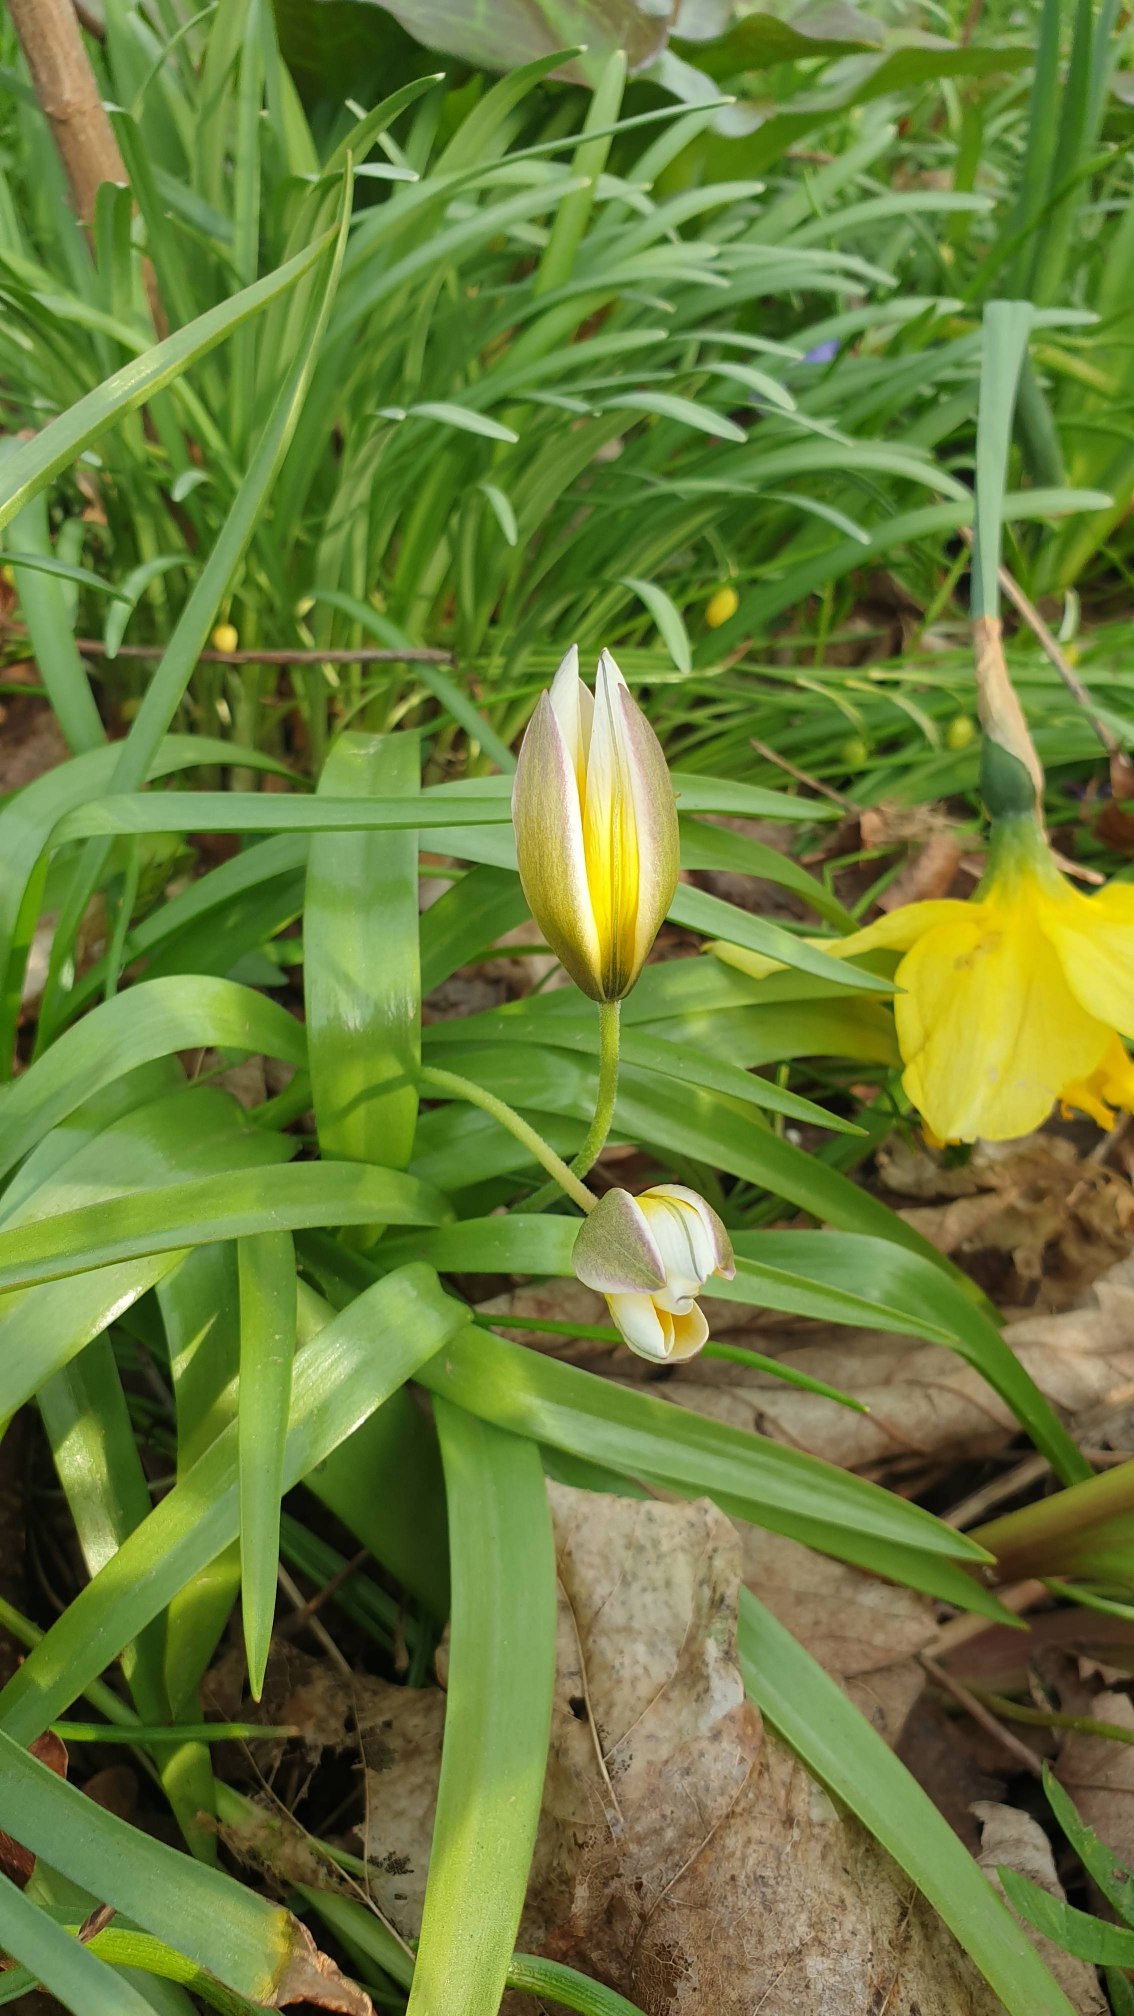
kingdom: Plantae
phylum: Tracheophyta
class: Liliopsida
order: Liliales
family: Liliaceae
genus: Tulipa
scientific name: Tulipa urumiensis
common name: Skærm-tulipan
